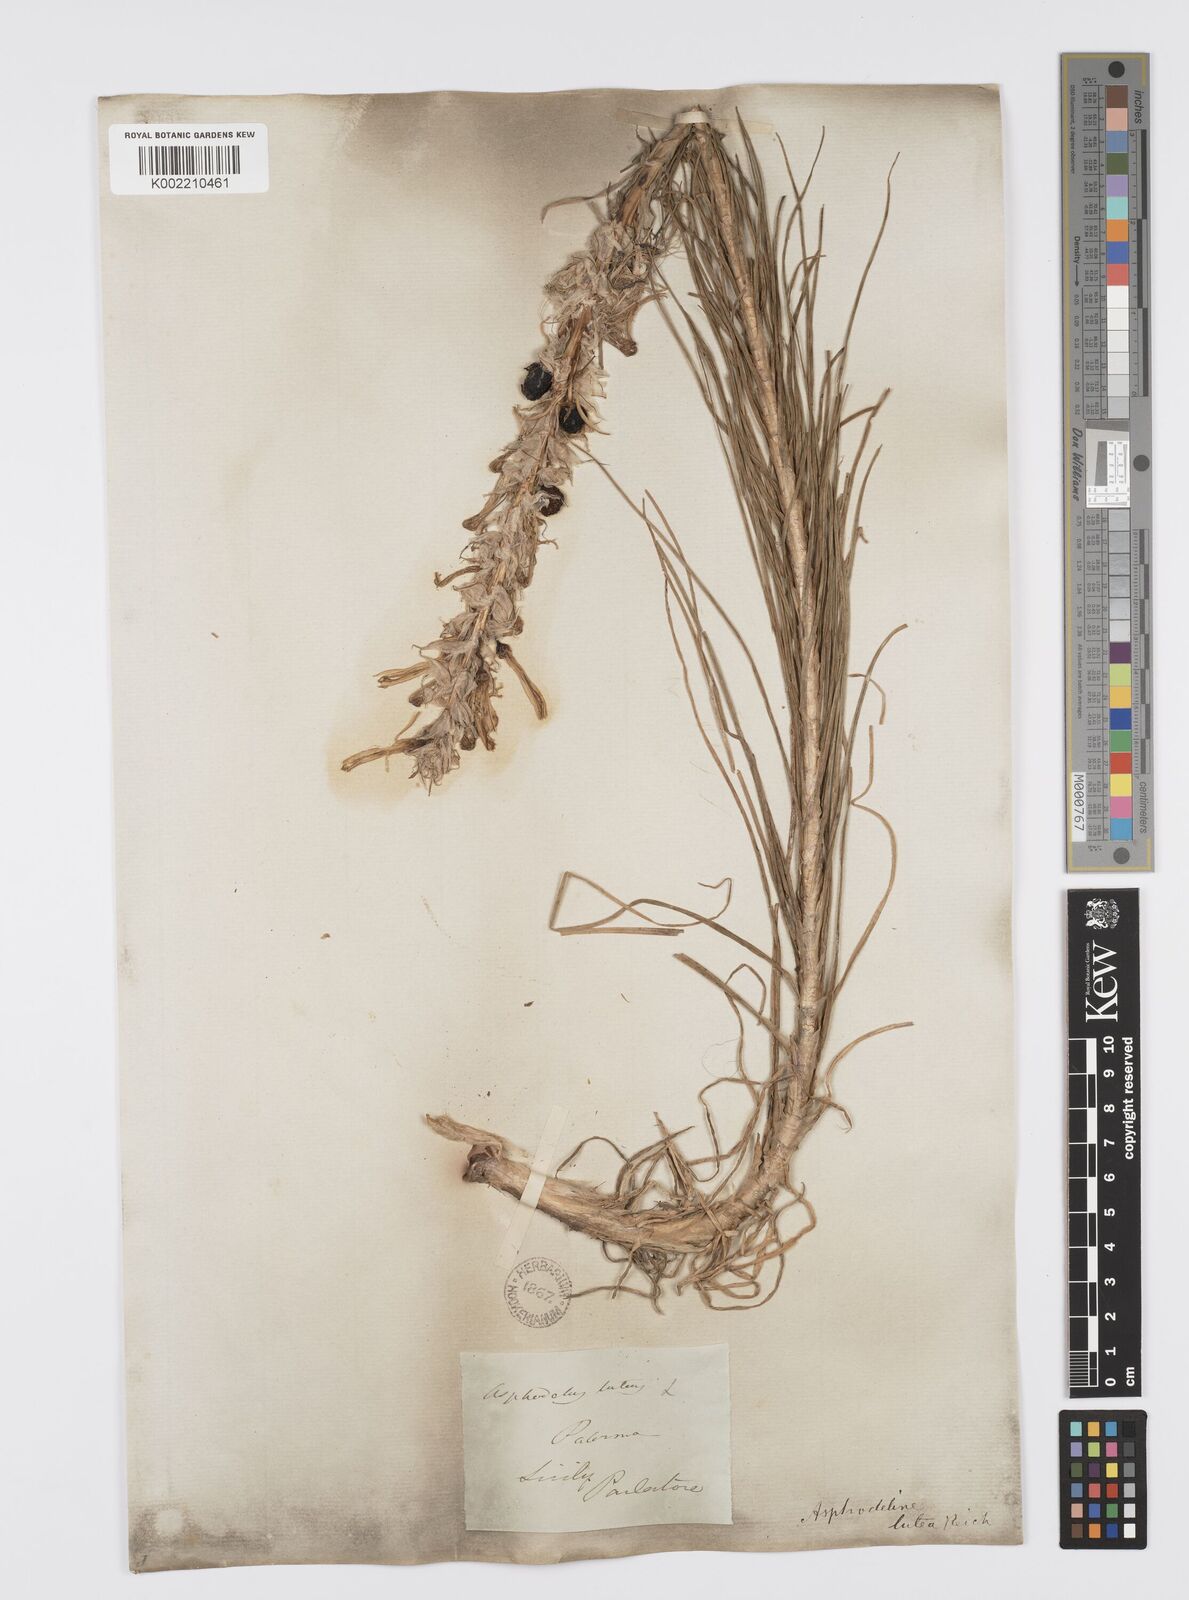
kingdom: Plantae
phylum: Tracheophyta
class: Liliopsida
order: Asparagales
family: Asphodelaceae
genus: Asphodeline
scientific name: Asphodeline lutea
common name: Yellow asphodel
